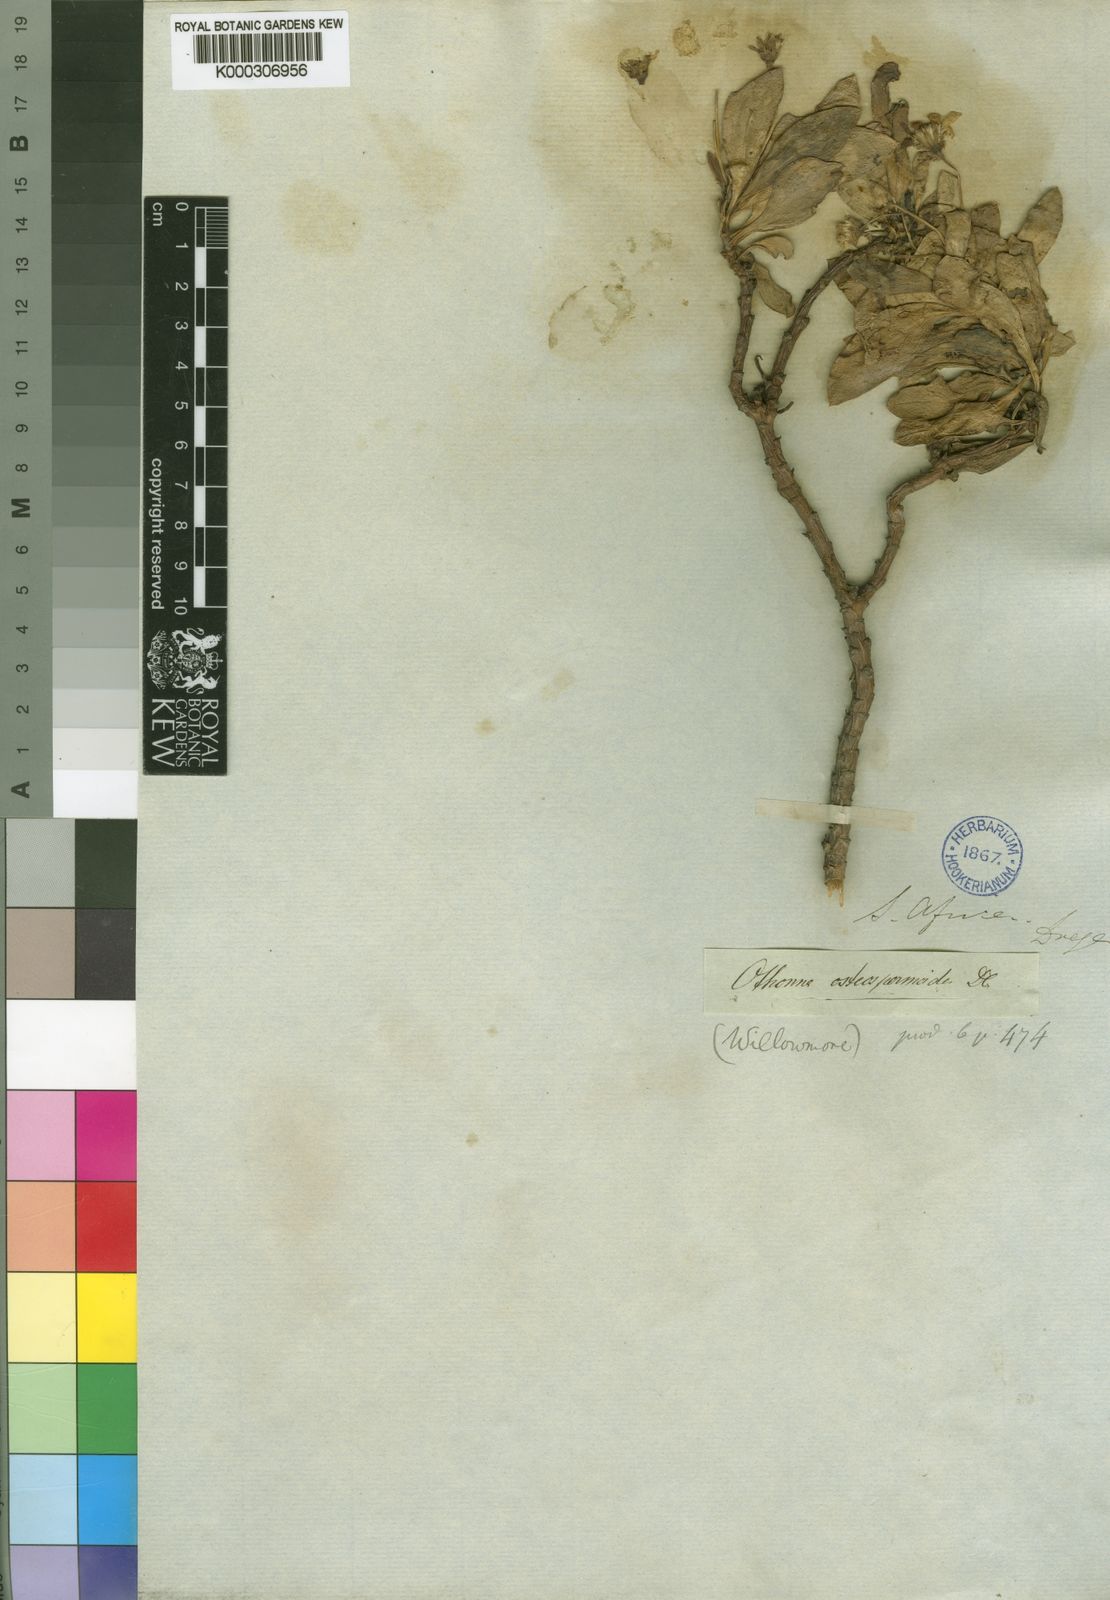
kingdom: Plantae
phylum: Tracheophyta
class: Magnoliopsida
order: Asterales
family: Asteraceae
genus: Othonna
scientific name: Othonna osteospermoides
